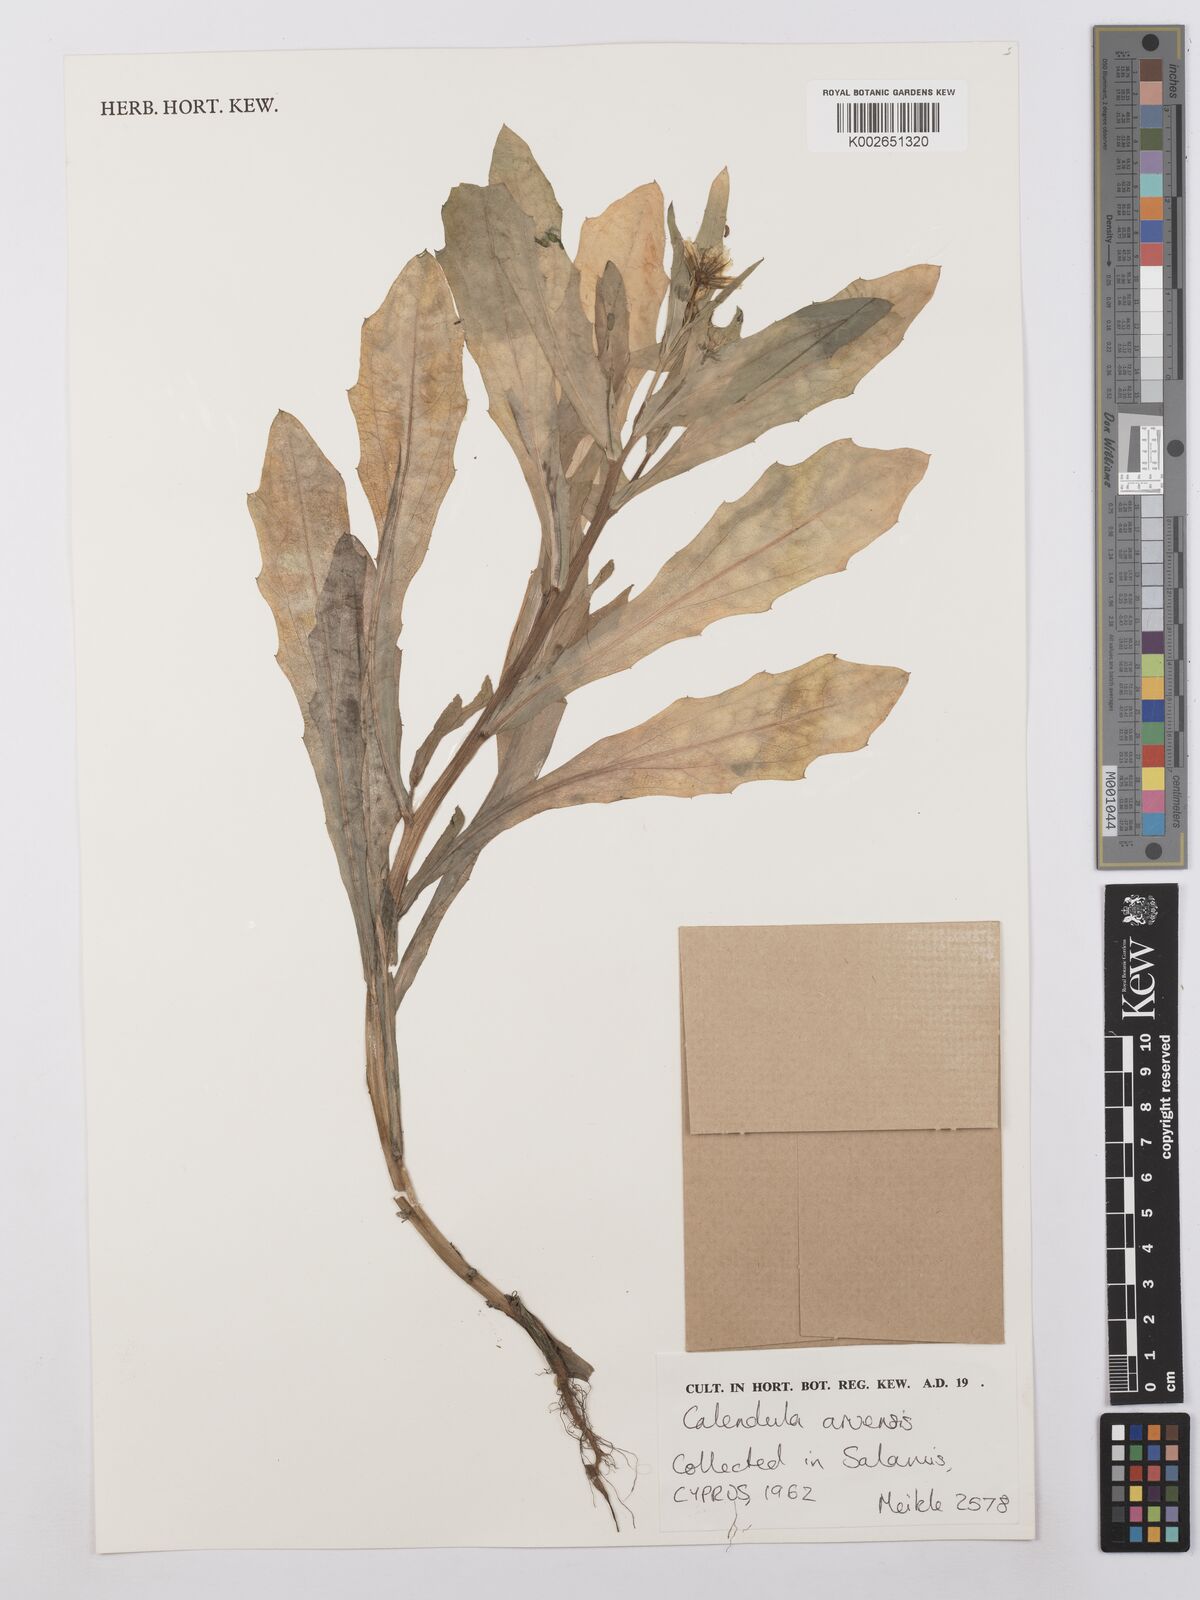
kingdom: Plantae
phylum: Tracheophyta
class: Magnoliopsida
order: Asterales
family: Asteraceae
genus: Calendula
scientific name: Calendula arvensis
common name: Field marigold
